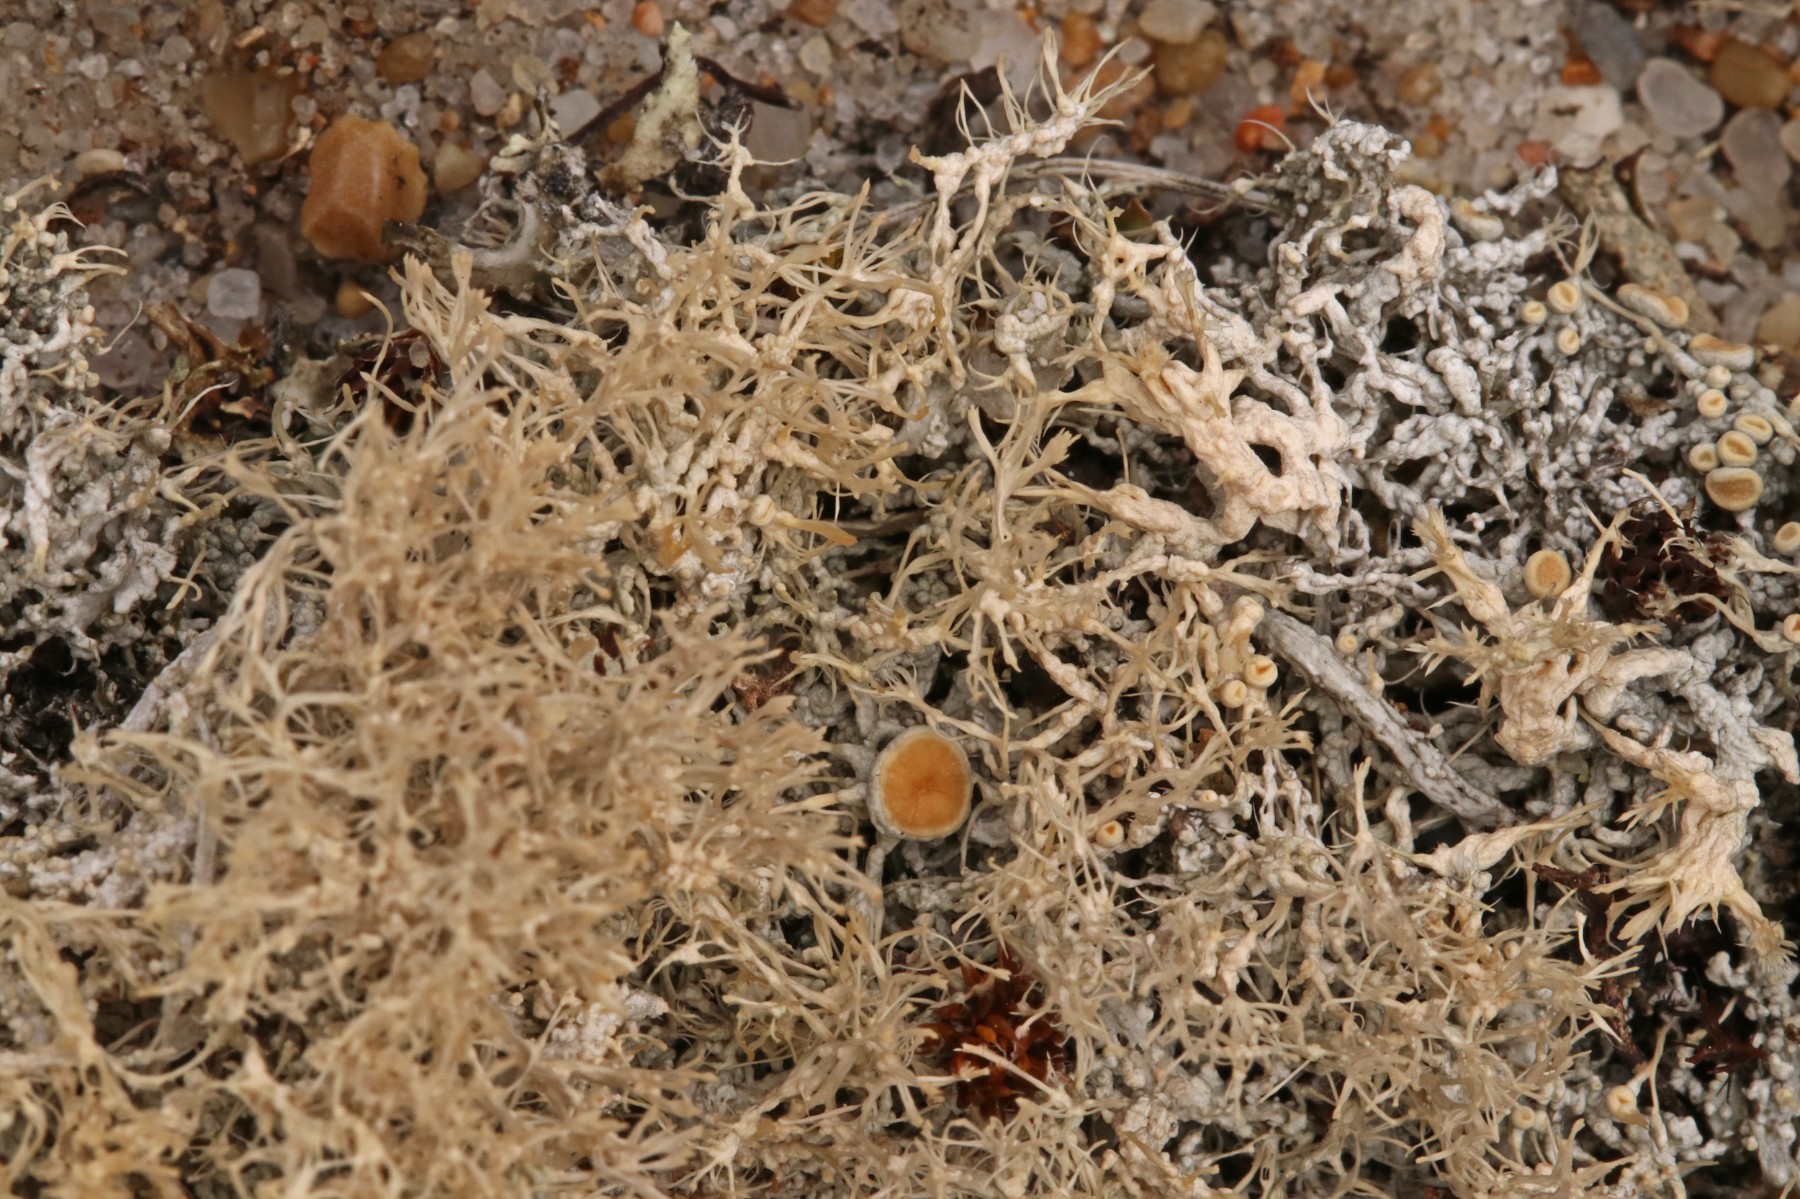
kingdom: Fungi
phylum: Ascomycota
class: Lecanoromycetes
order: Pertusariales
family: Ochrolechiaceae
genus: Ochrolechia
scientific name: Ochrolechia frigida
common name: fjeld-blegskivelav
